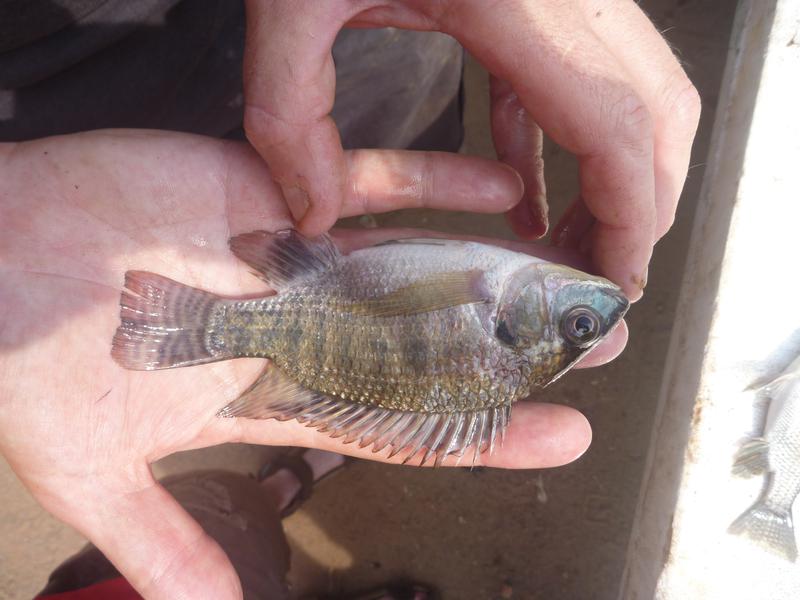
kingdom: Animalia
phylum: Chordata
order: Perciformes
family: Cichlidae
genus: Oreochromis
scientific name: Oreochromis niloticus
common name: Nile tilapia
